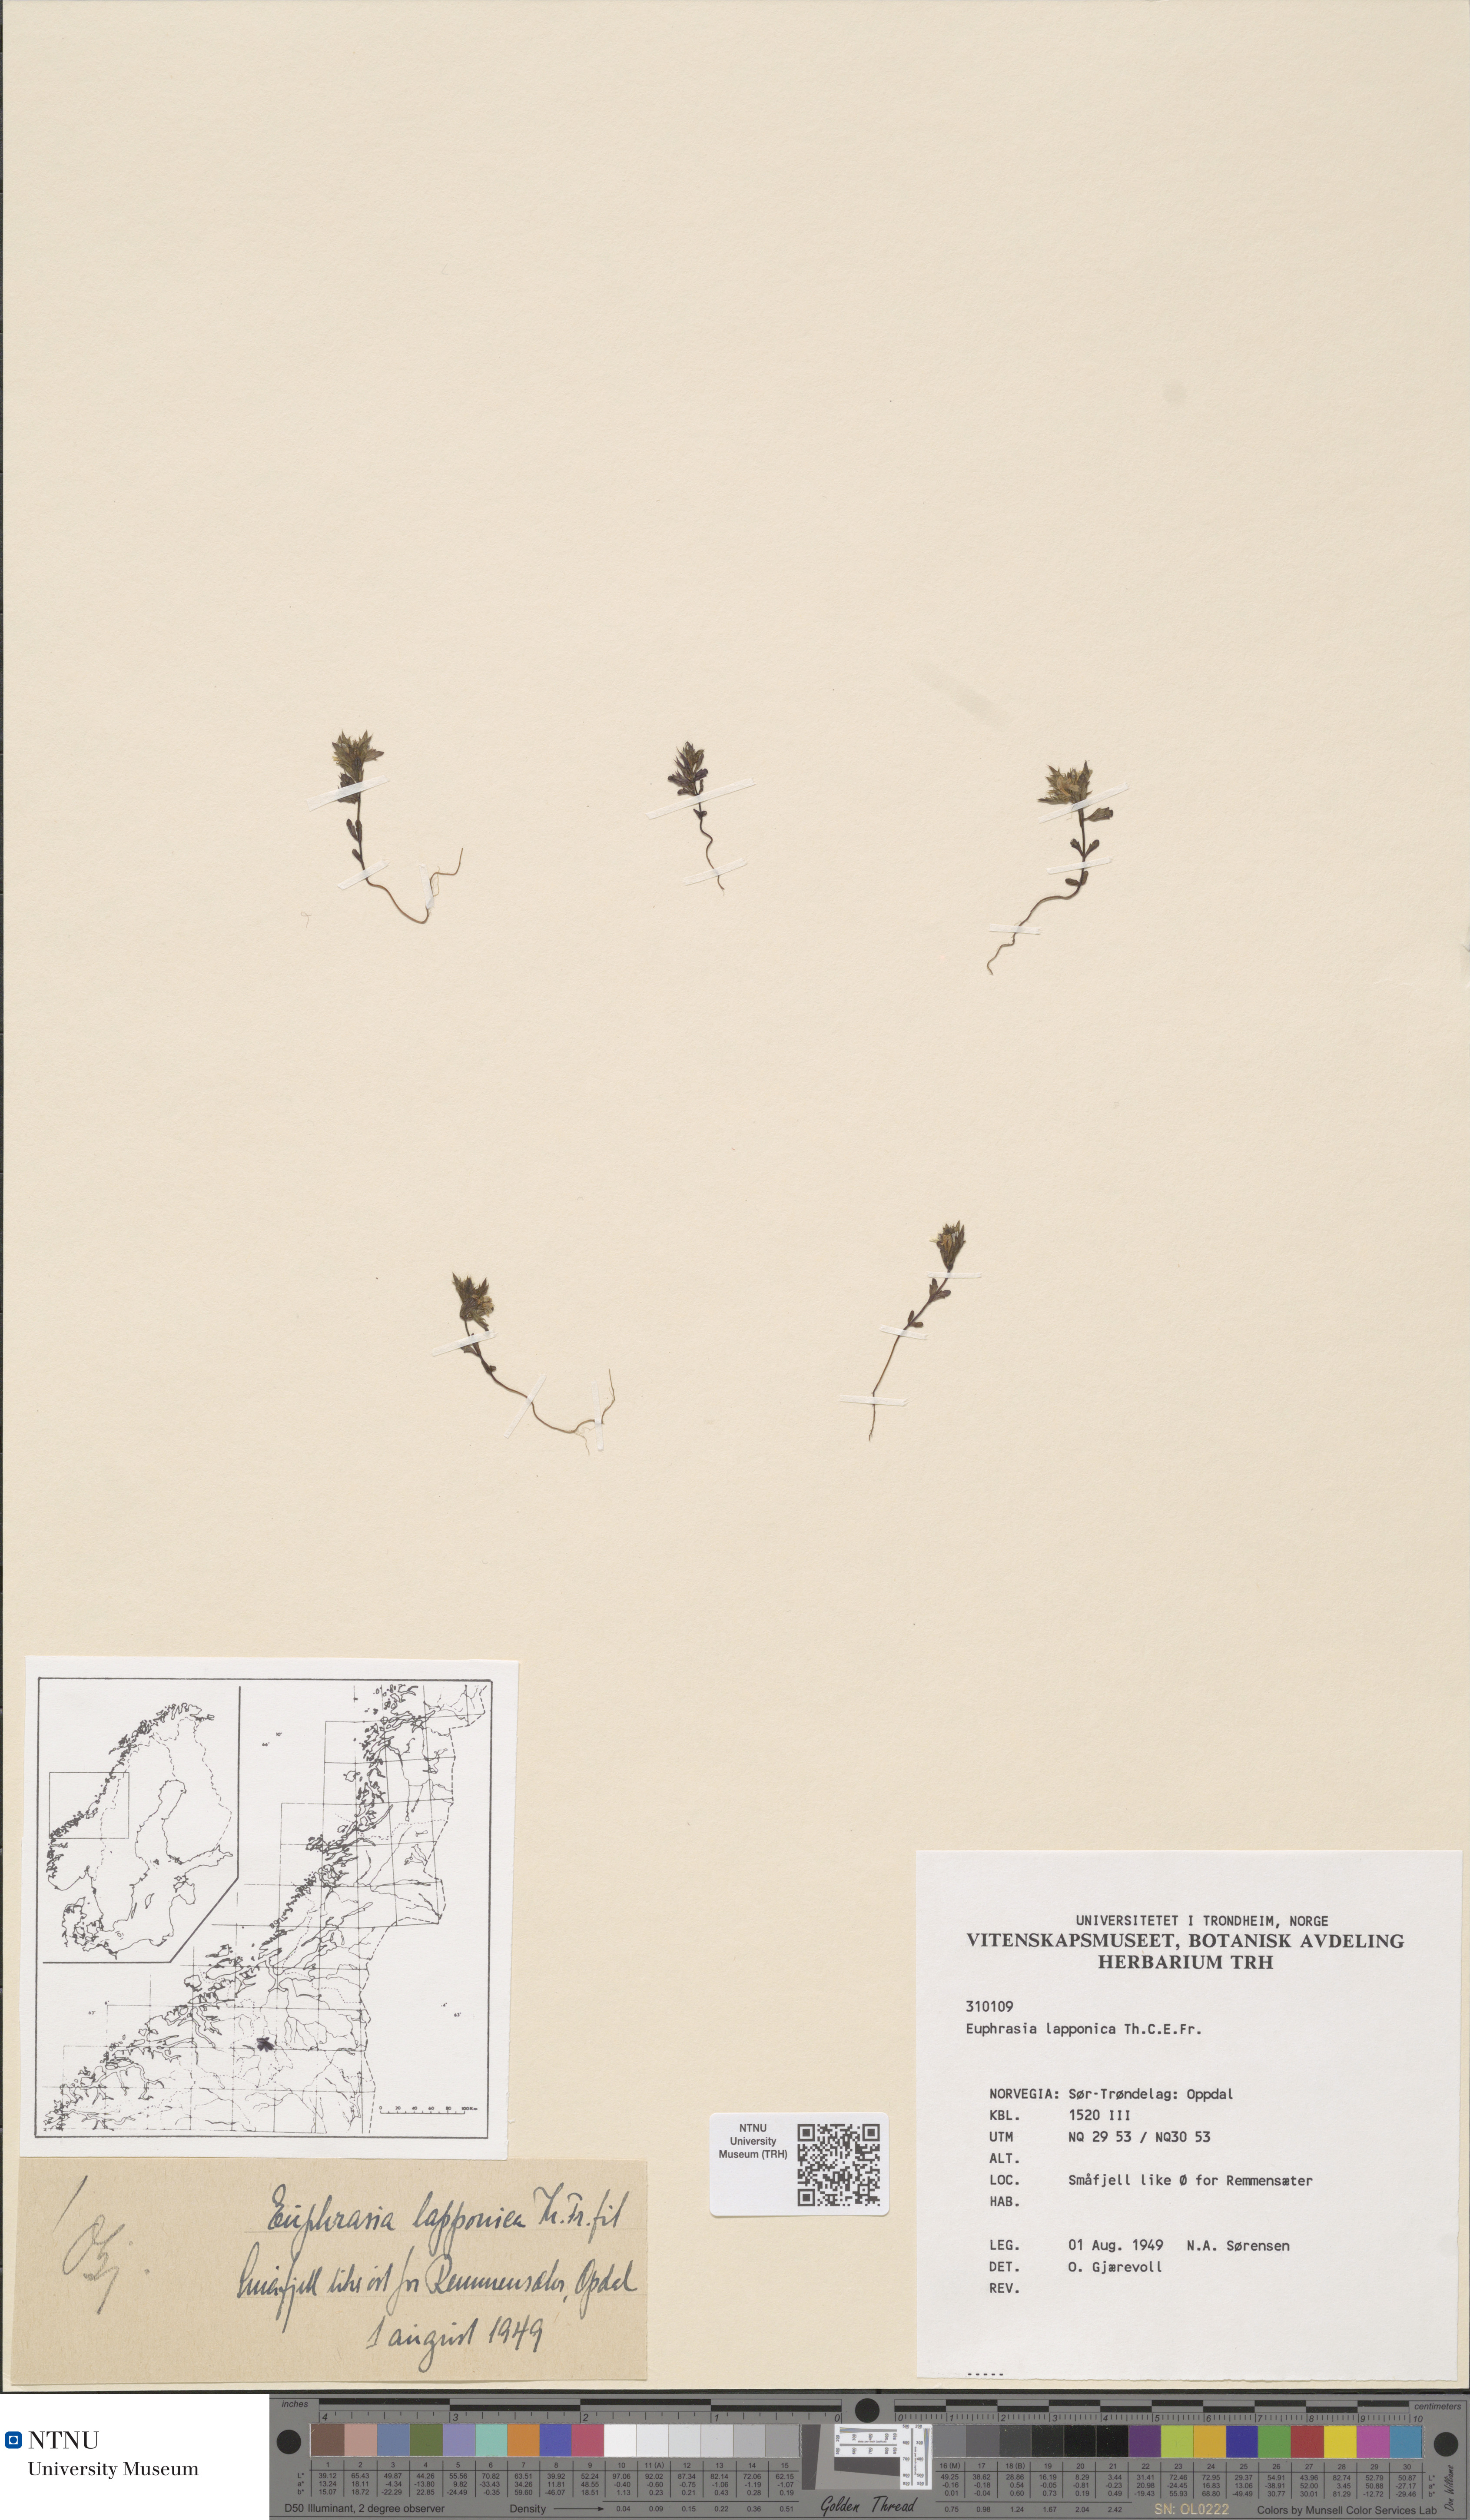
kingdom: Plantae
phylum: Tracheophyta
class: Magnoliopsida
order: Lamiales
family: Orobanchaceae
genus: Euphrasia
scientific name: Euphrasia salisburgensis
